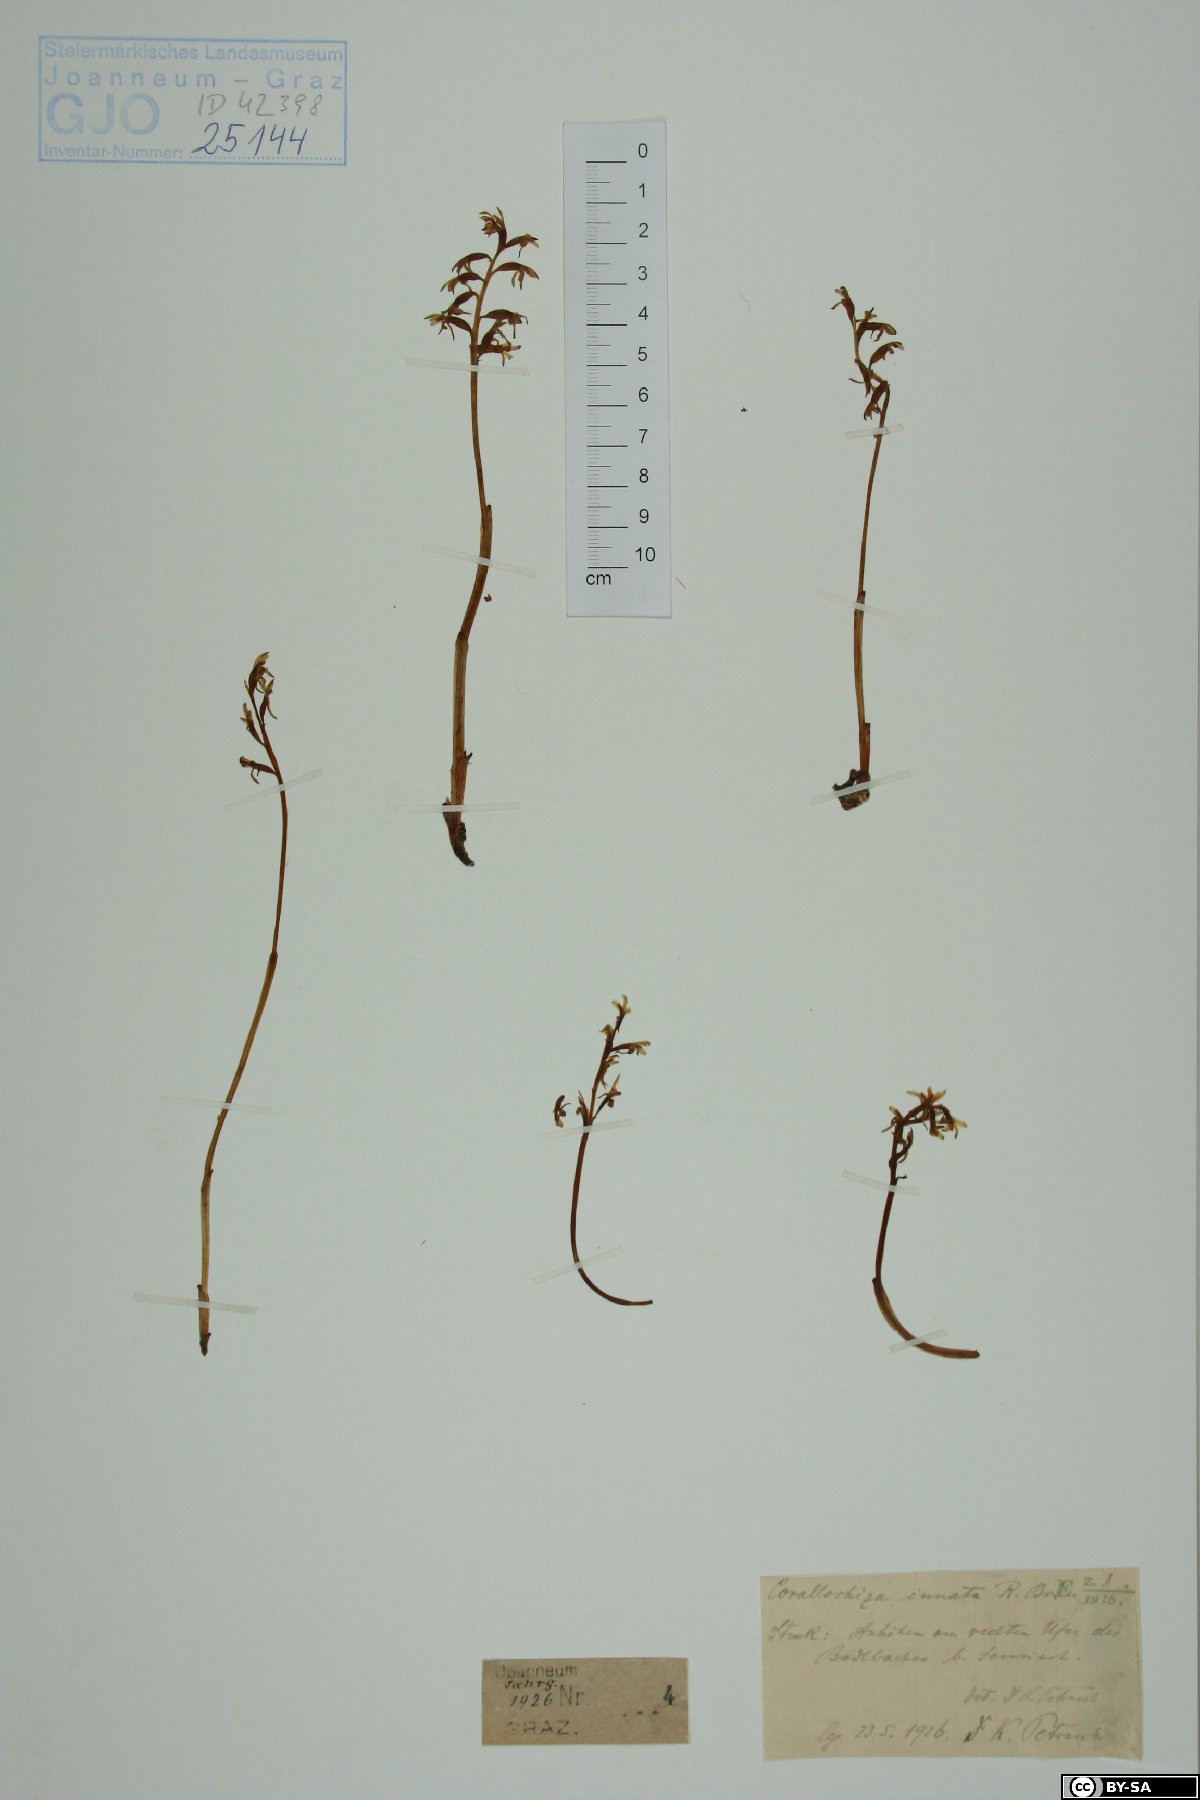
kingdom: Plantae
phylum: Tracheophyta
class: Liliopsida
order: Asparagales
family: Orchidaceae
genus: Corallorhiza
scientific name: Corallorhiza trifida
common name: Yellow coralroot
